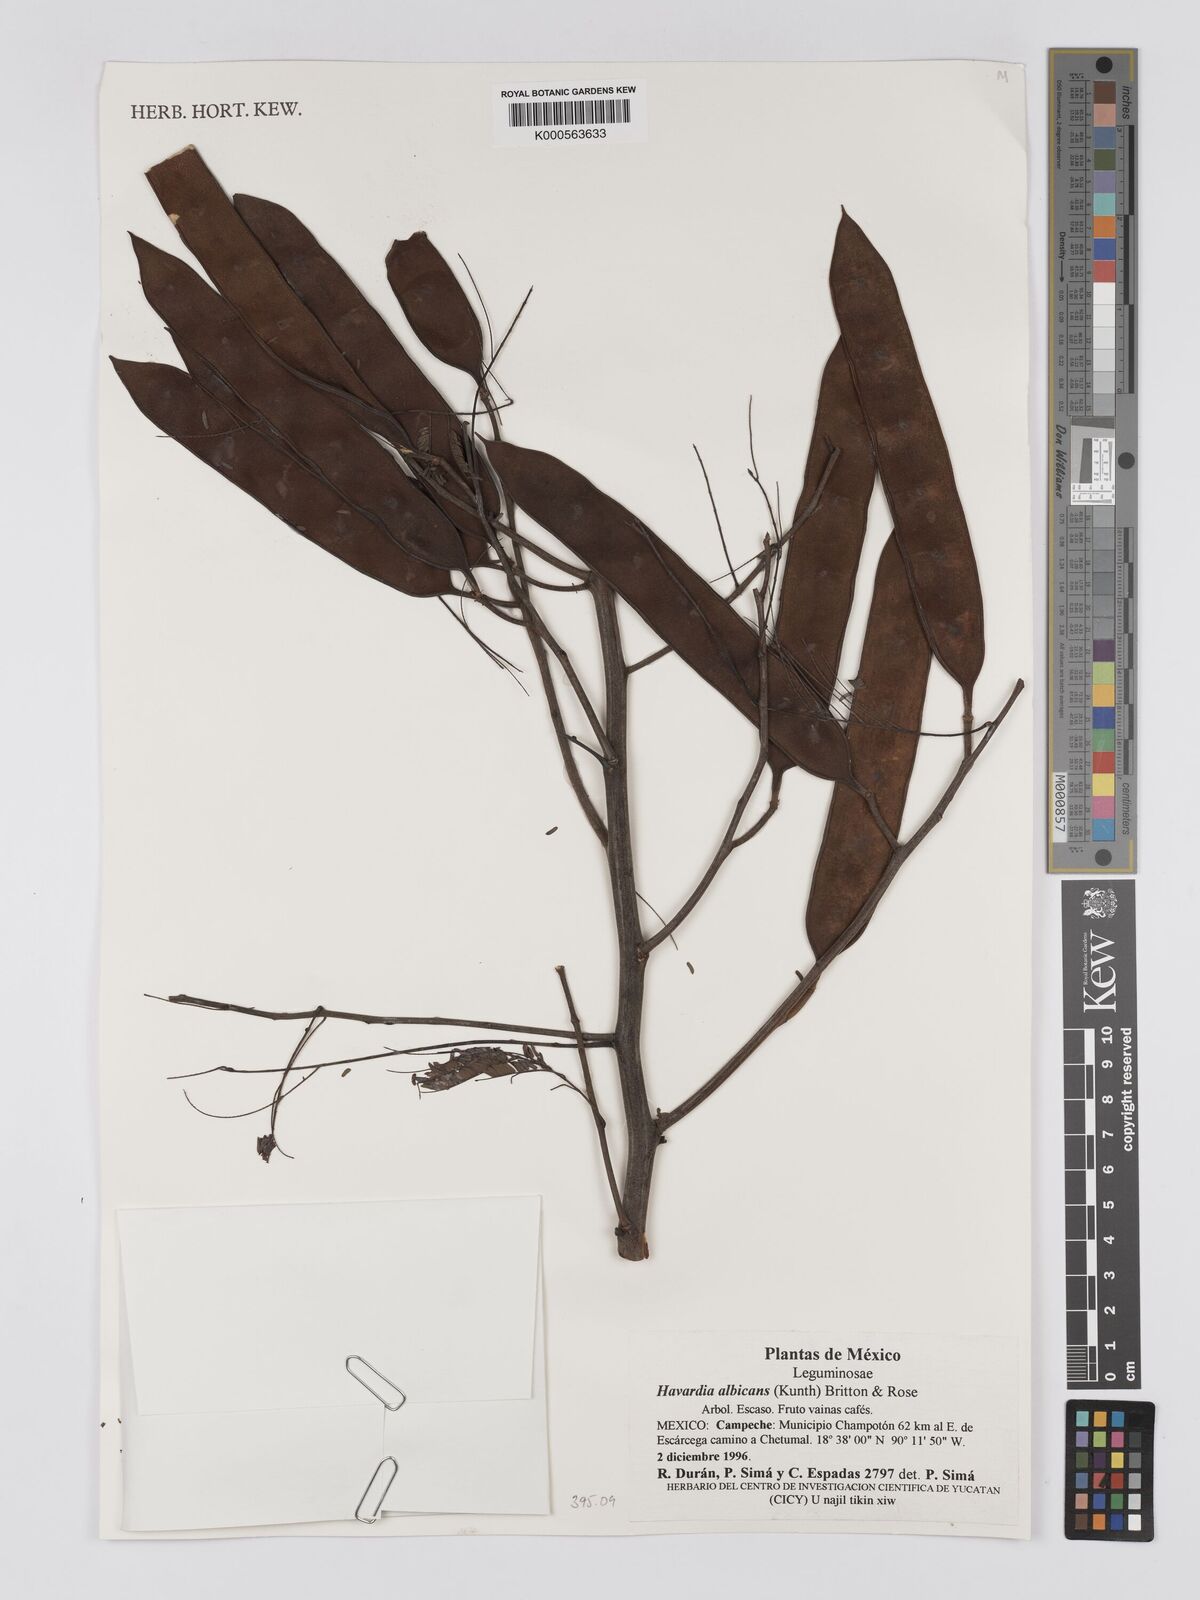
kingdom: Plantae
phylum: Tracheophyta
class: Magnoliopsida
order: Fabales
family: Fabaceae
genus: Havardia
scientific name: Havardia albicans
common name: Huisache
